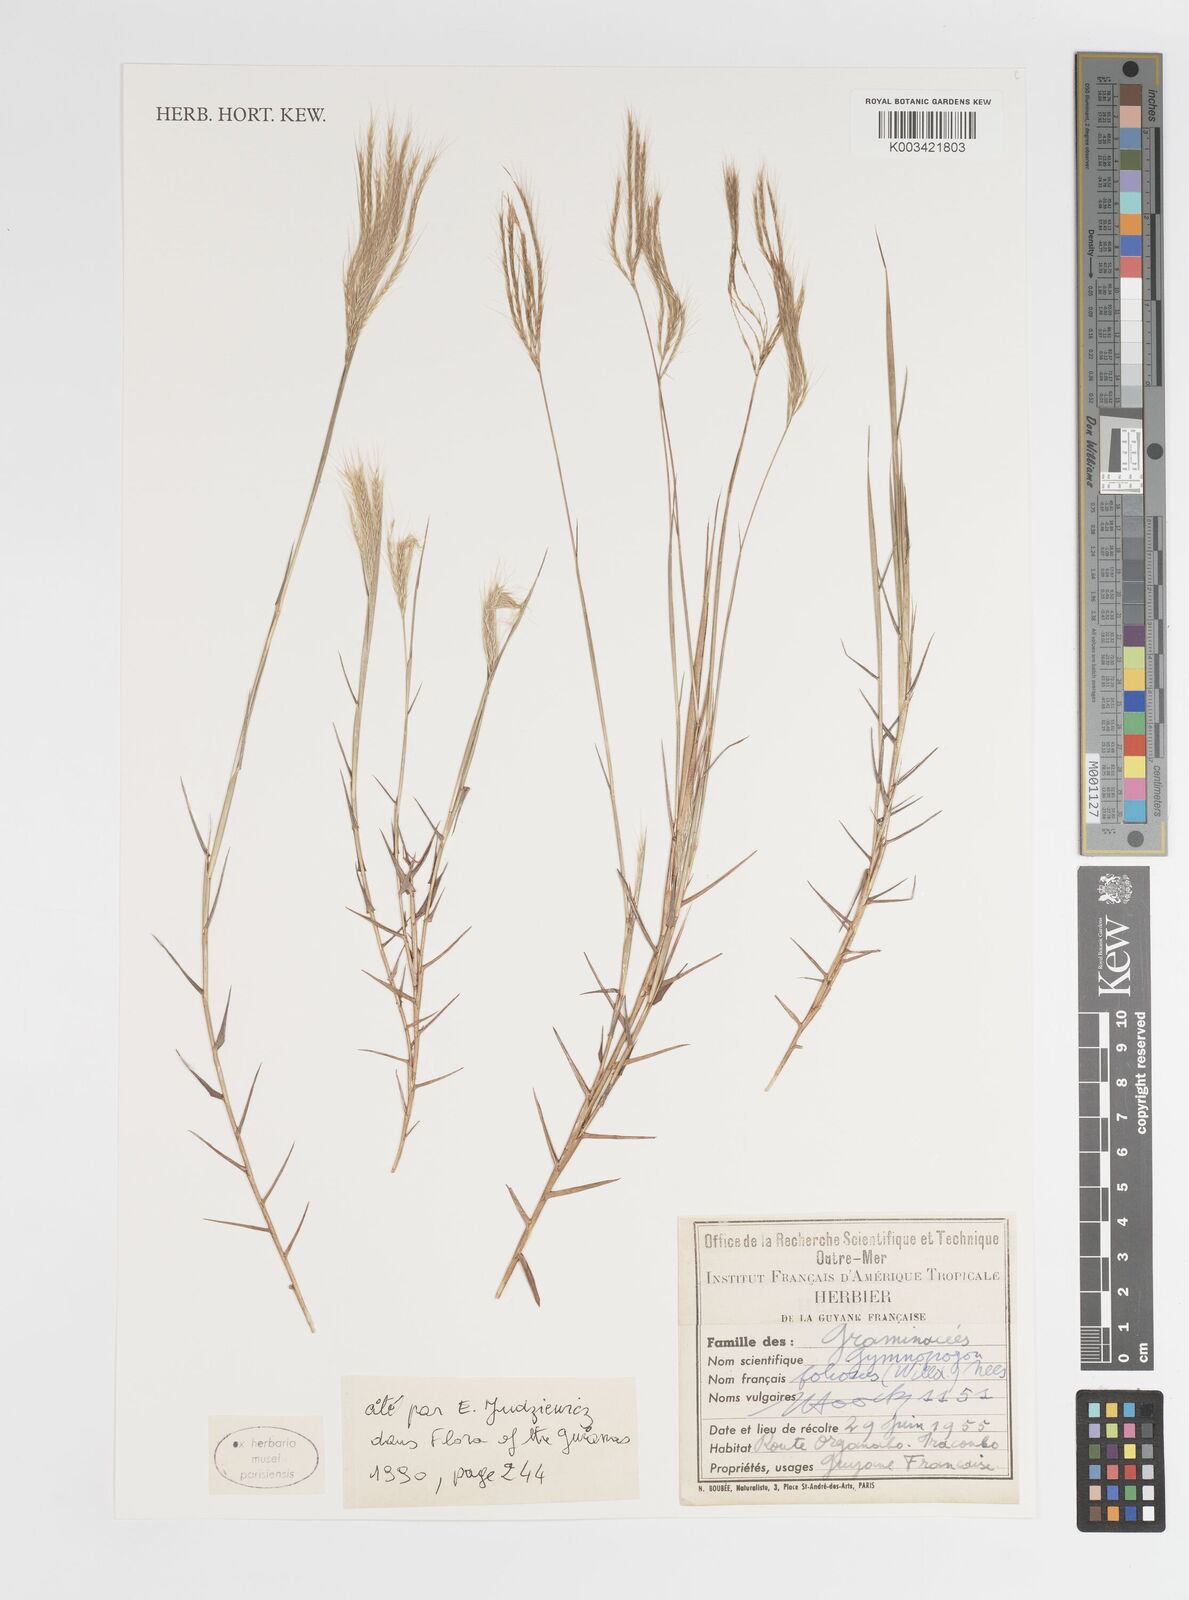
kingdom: Plantae
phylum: Tracheophyta
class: Liliopsida
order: Poales
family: Poaceae
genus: Gymnopogon
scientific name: Gymnopogon foliosus
